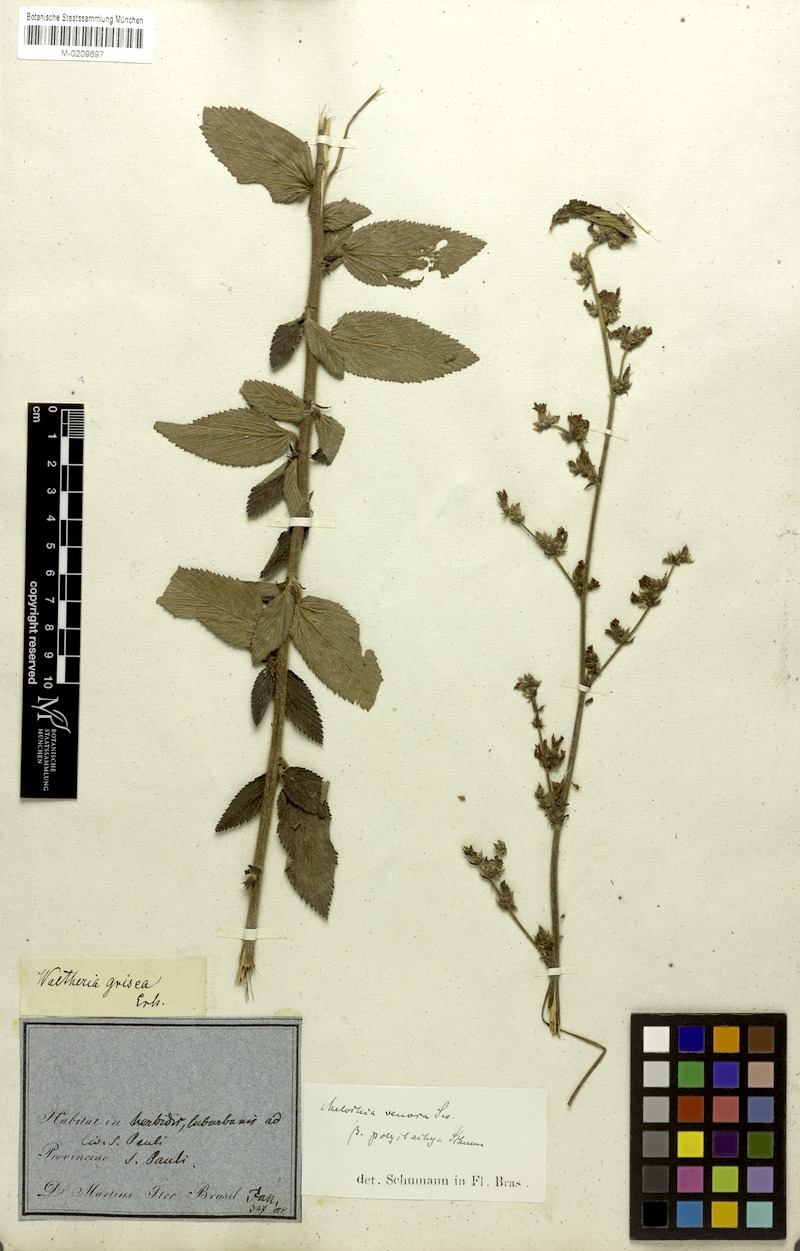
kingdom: Plantae
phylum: Tracheophyta
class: Magnoliopsida
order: Malvales
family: Malvaceae
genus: Melochia
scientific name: Melochia pilosa
